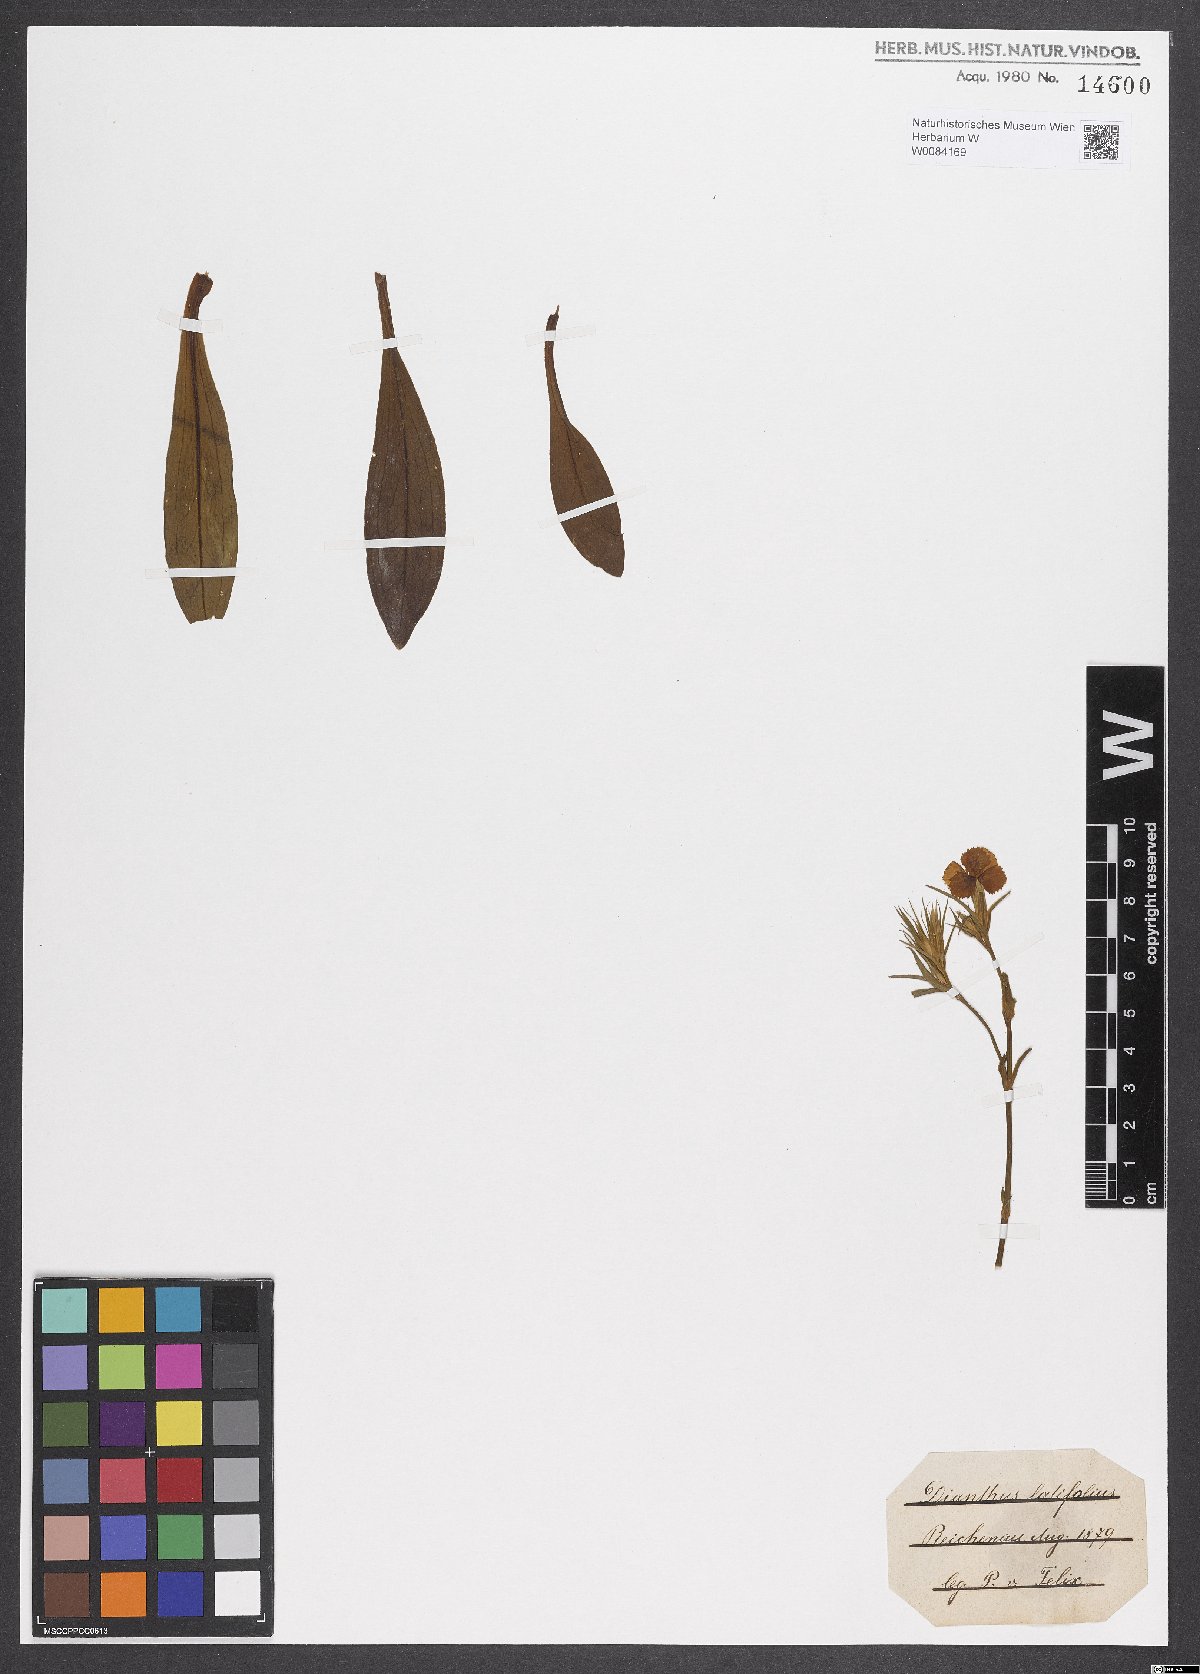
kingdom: Plantae
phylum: Tracheophyta
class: Magnoliopsida
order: Caryophyllales
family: Caryophyllaceae
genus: Dianthus
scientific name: Dianthus barbatus
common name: Sweet-william
